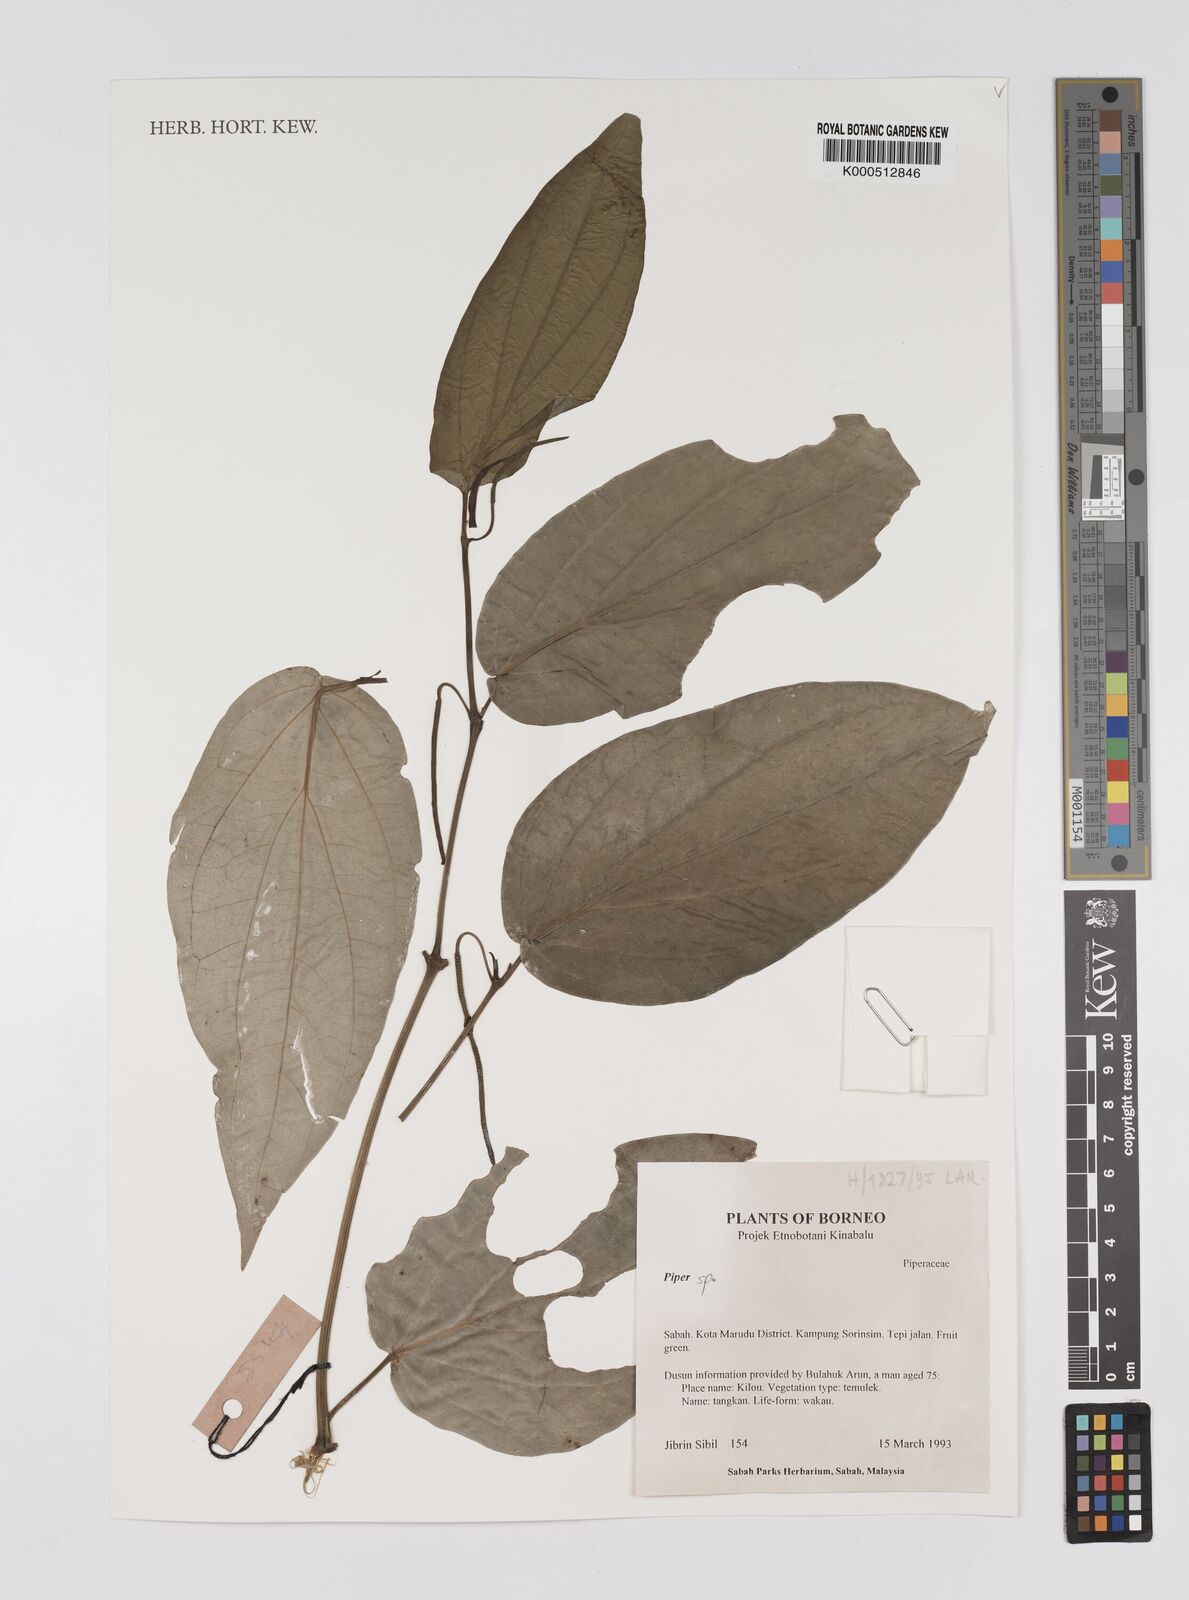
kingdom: Plantae
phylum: Tracheophyta
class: Magnoliopsida
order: Piperales
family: Piperaceae
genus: Piper
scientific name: Piper
